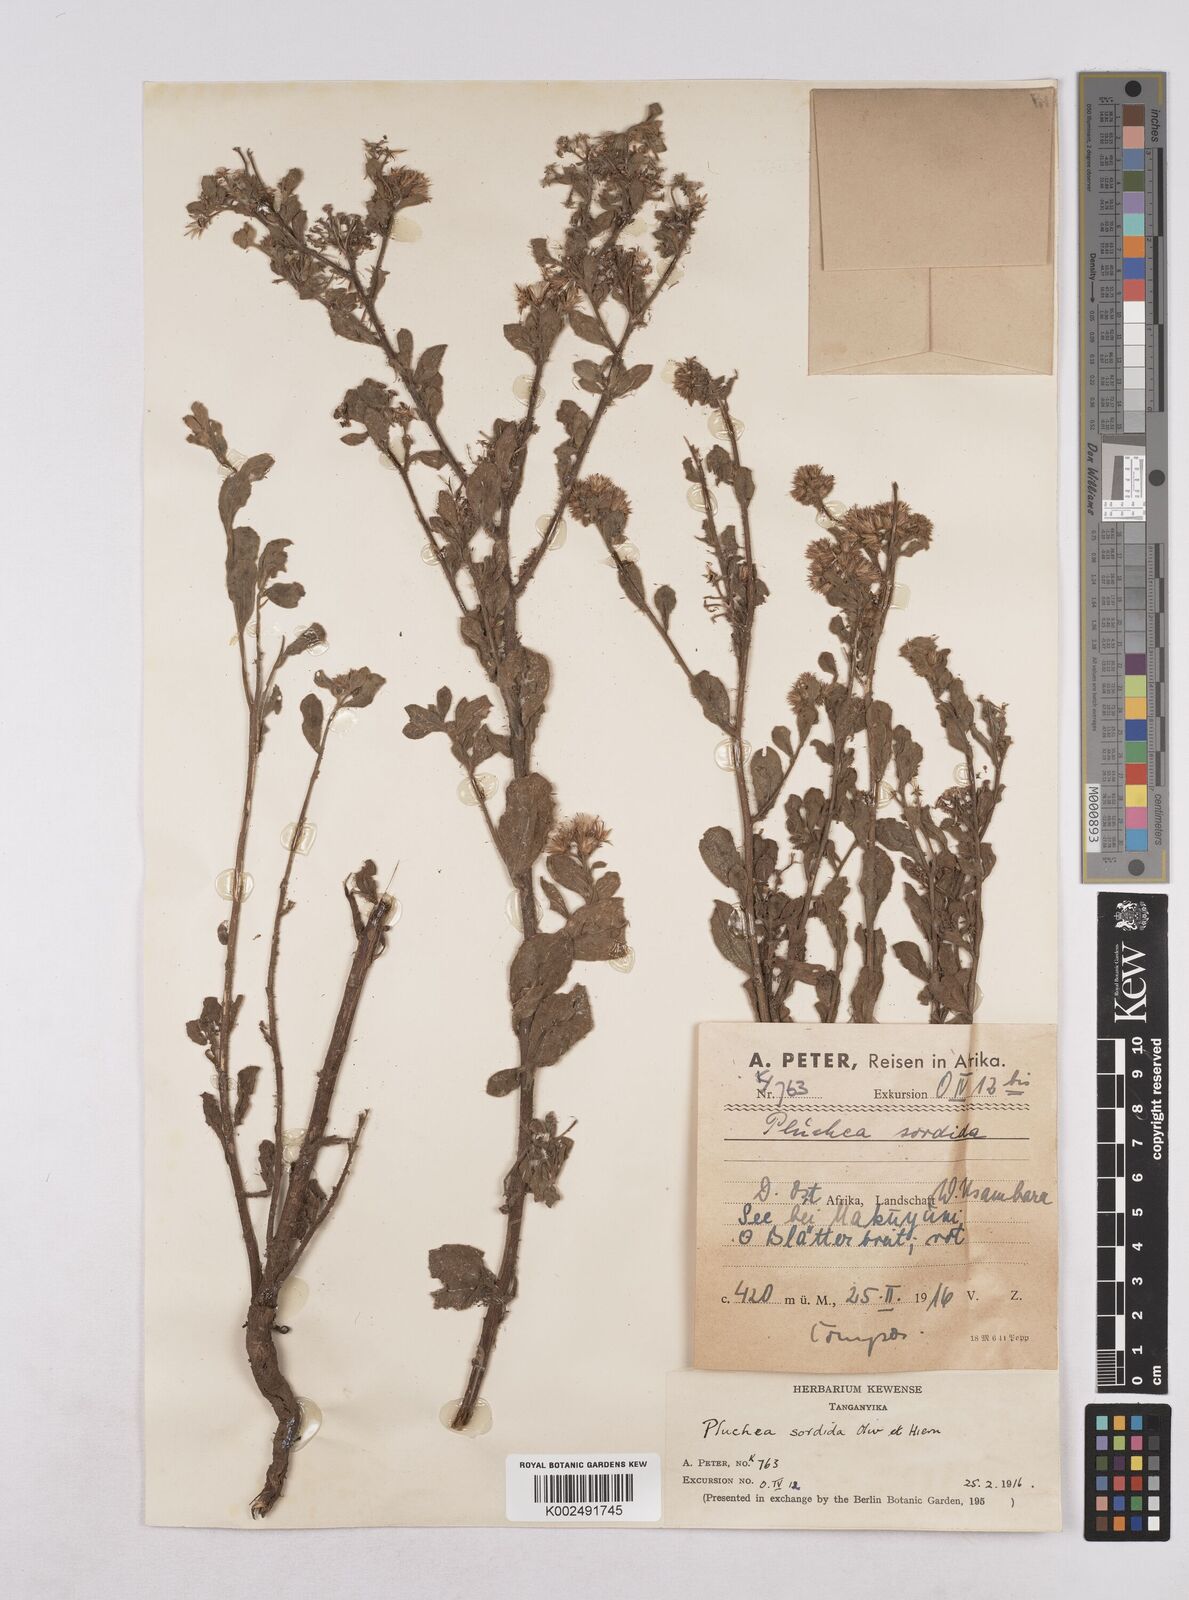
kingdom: Plantae
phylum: Tracheophyta
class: Magnoliopsida
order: Asterales
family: Asteraceae
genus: Pluchea
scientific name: Pluchea sordida
